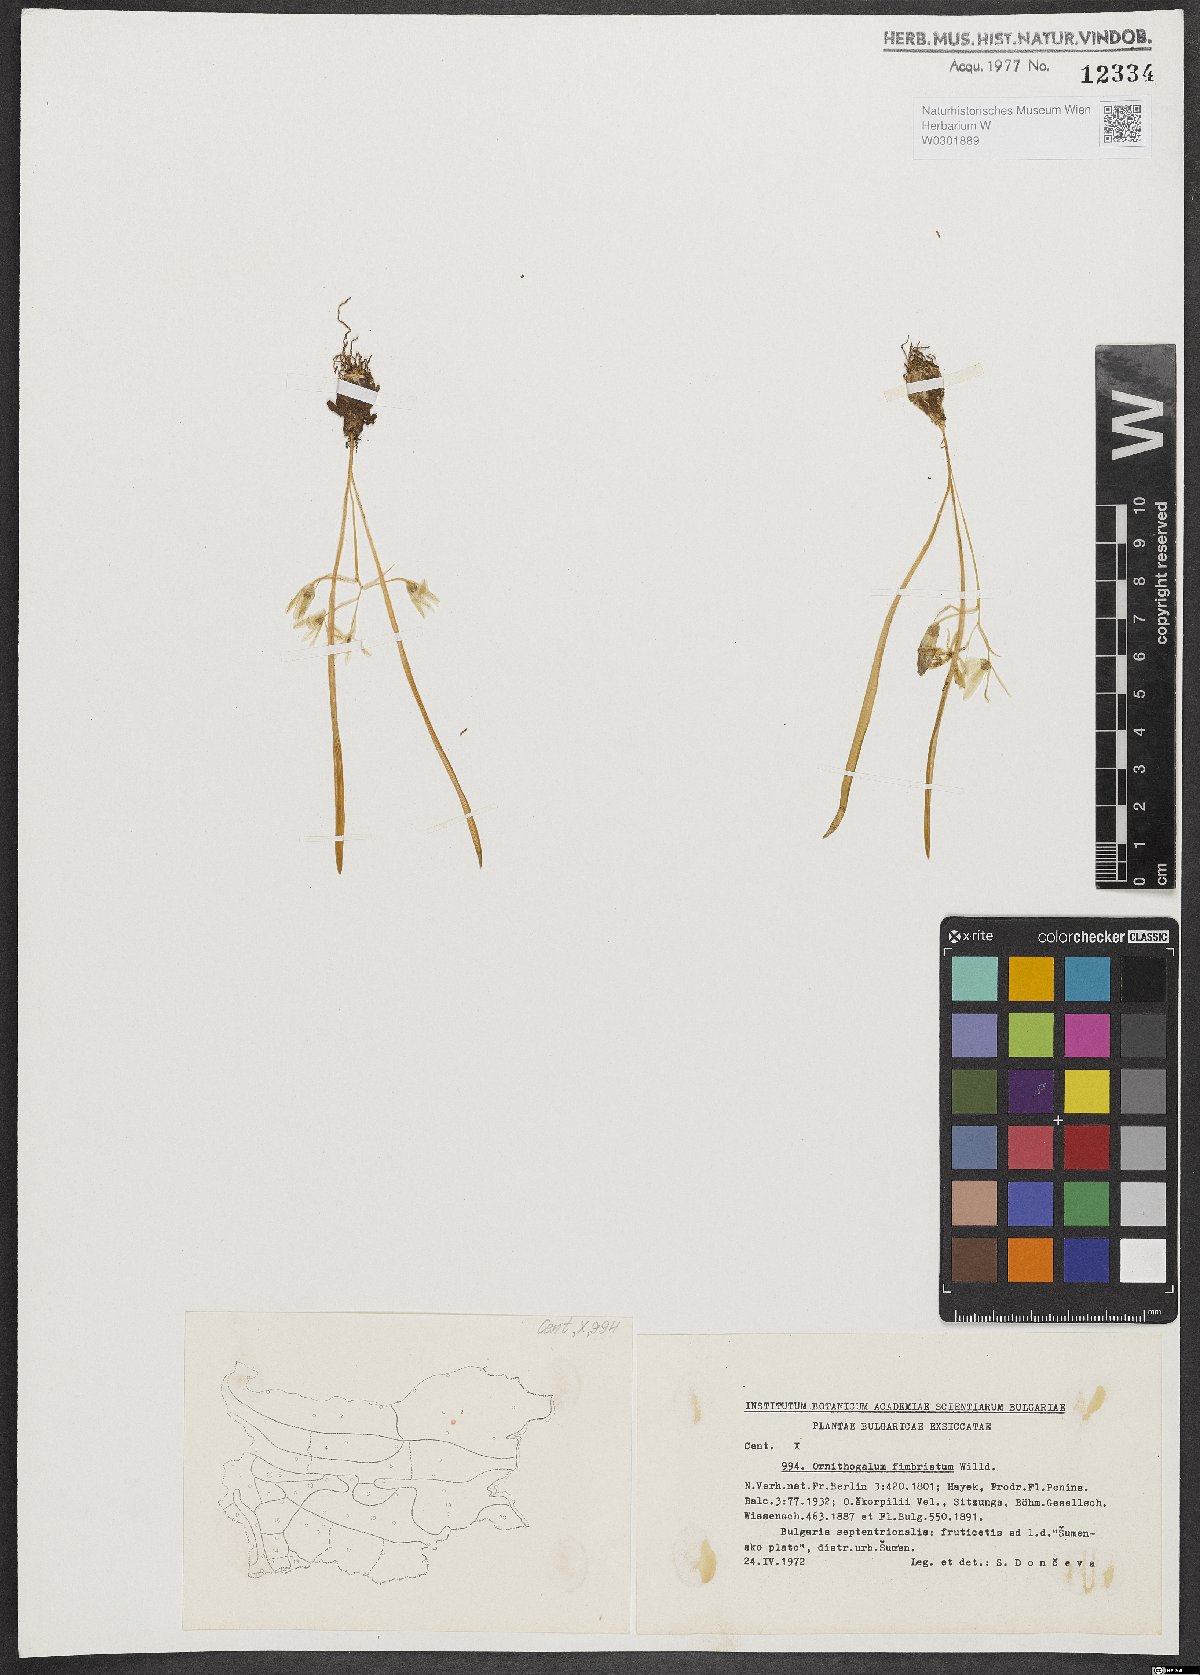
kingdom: Plantae
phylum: Tracheophyta
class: Liliopsida
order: Asparagales
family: Asparagaceae
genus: Ornithogalum
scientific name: Ornithogalum fimbriatum
